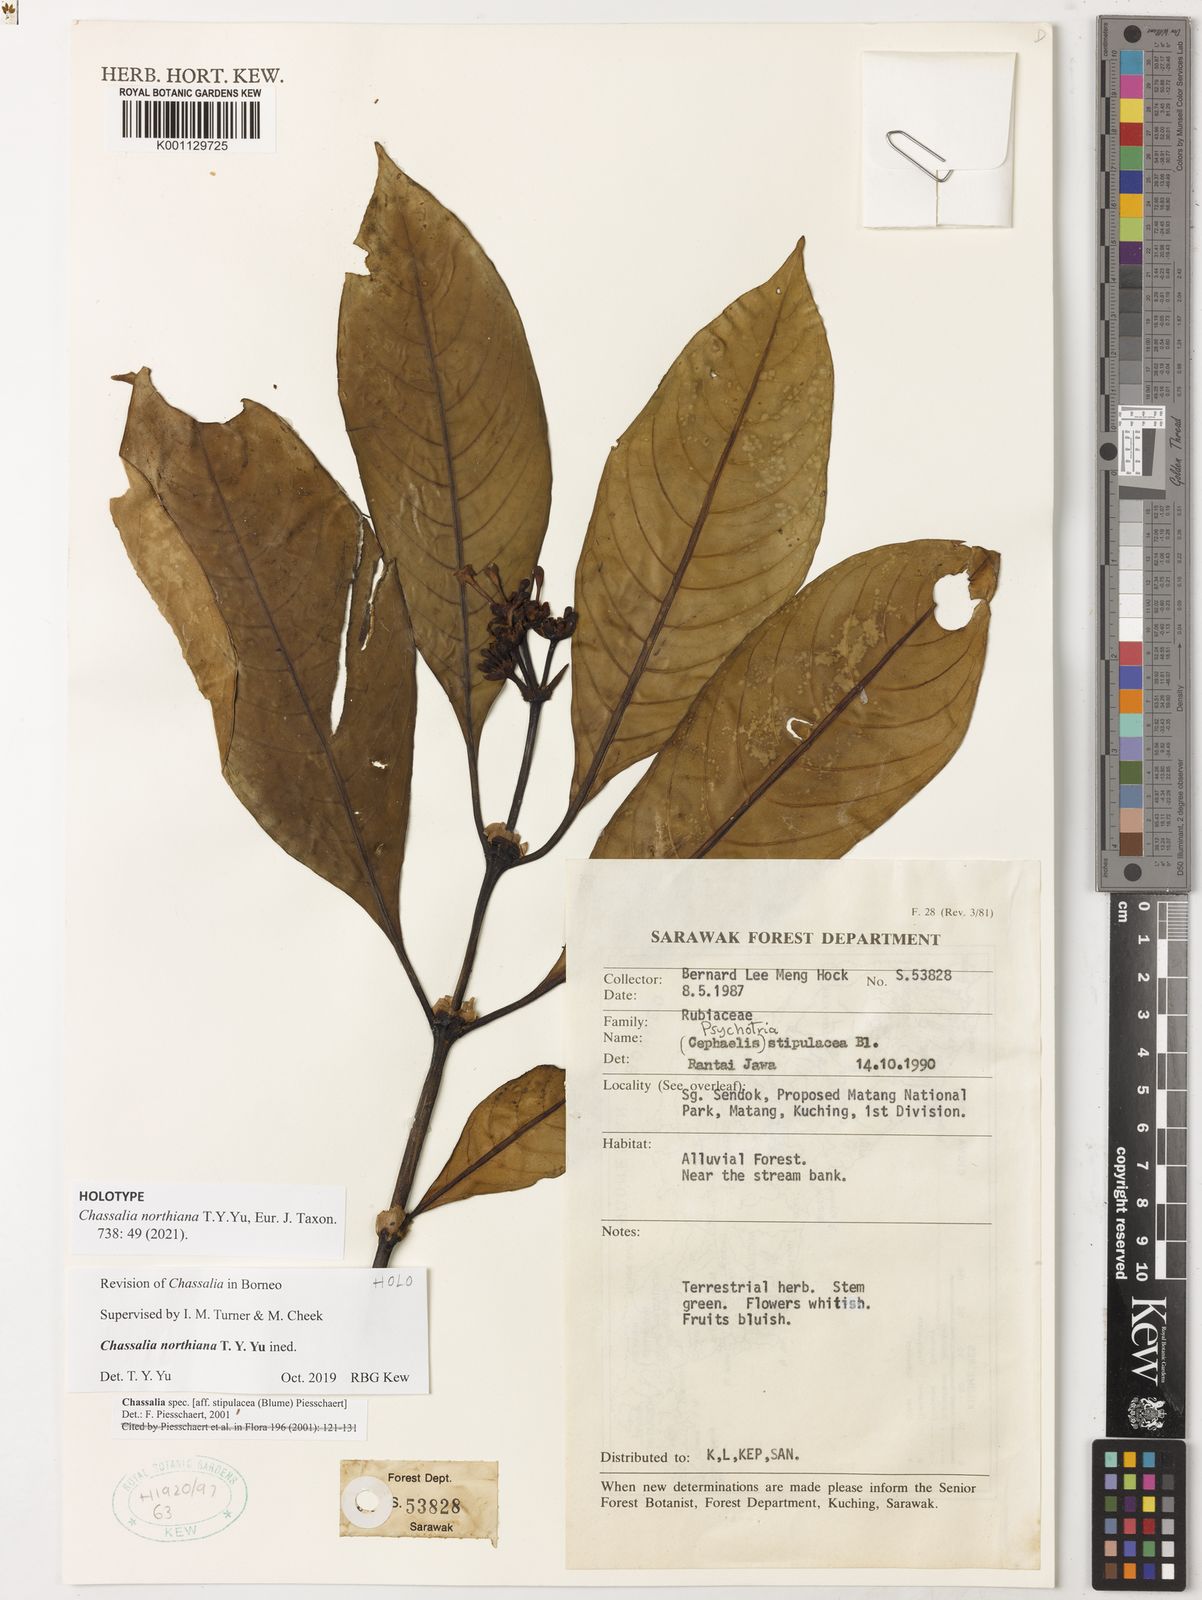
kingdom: Plantae
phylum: Tracheophyta
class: Magnoliopsida
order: Gentianales
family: Rubiaceae
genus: Chassalia
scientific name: Chassalia
